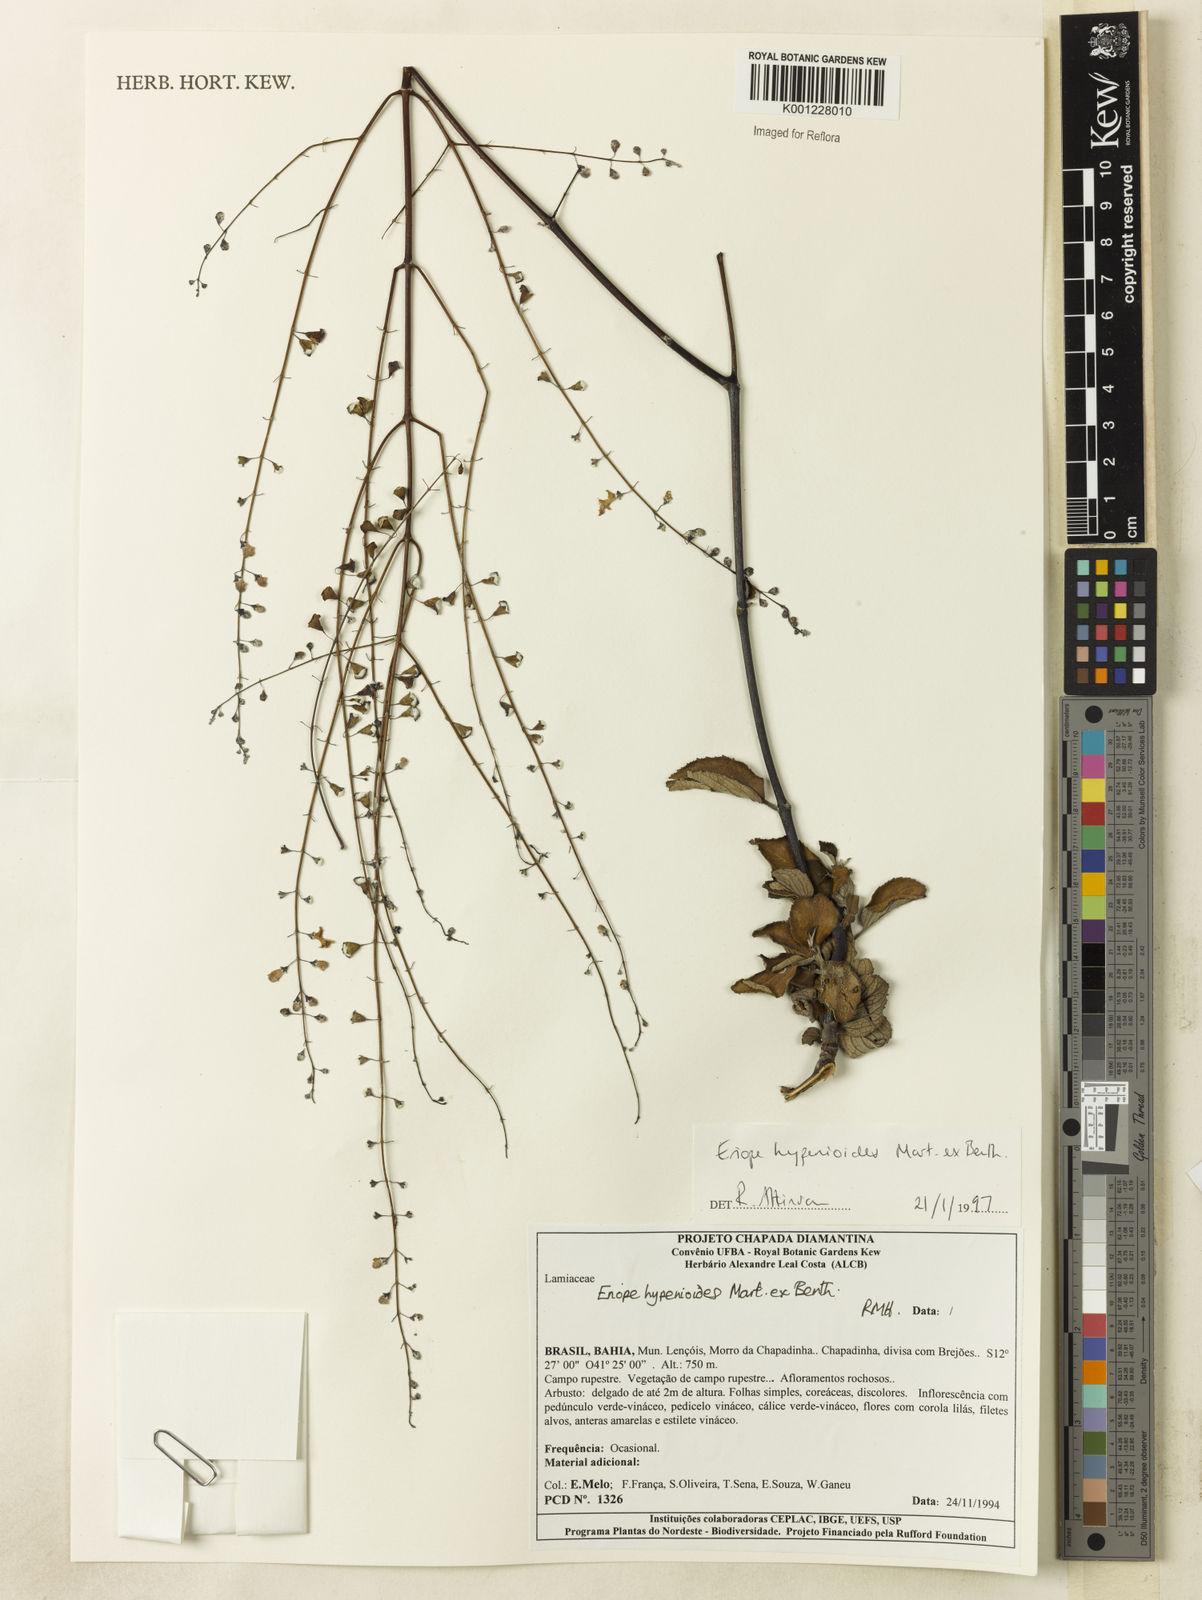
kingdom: Plantae
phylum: Tracheophyta
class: Magnoliopsida
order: Lamiales
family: Lamiaceae
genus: Eriope
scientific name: Eriope hypenioides
